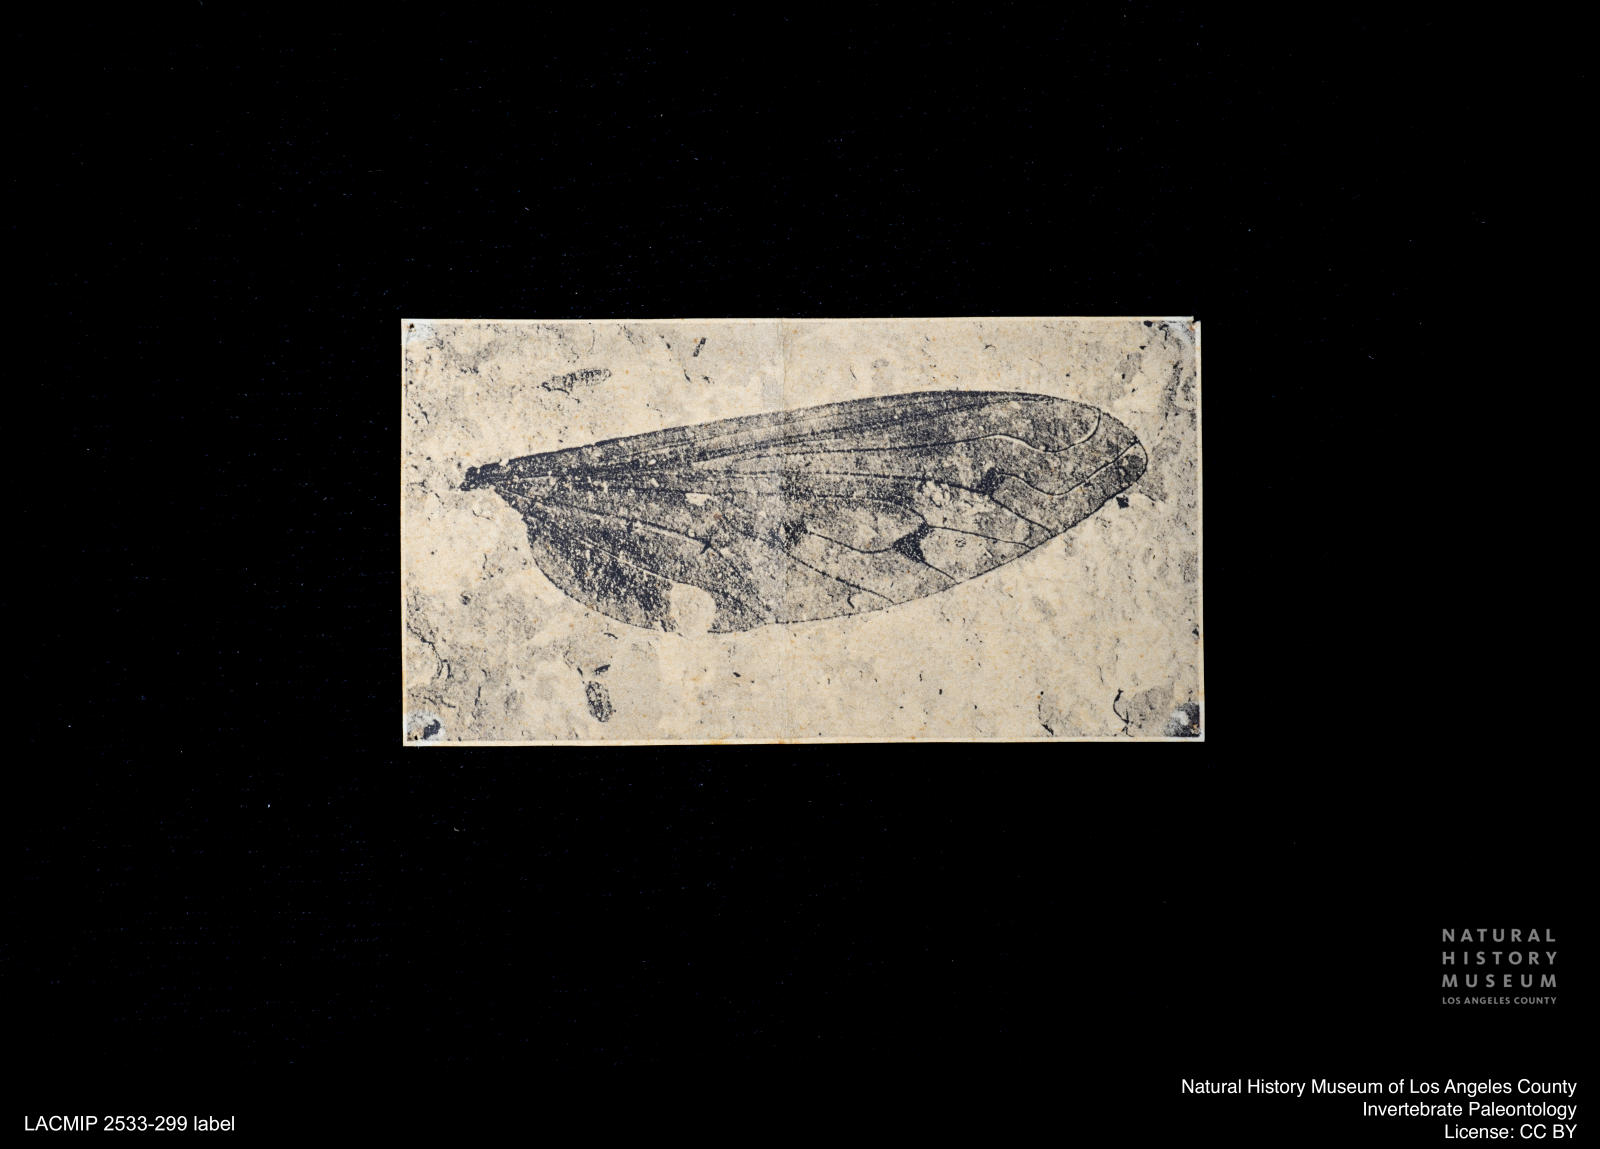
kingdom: Animalia
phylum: Arthropoda
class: Insecta
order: Diptera
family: Bombyliidae
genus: Spogostylum
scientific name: Spogostylum
